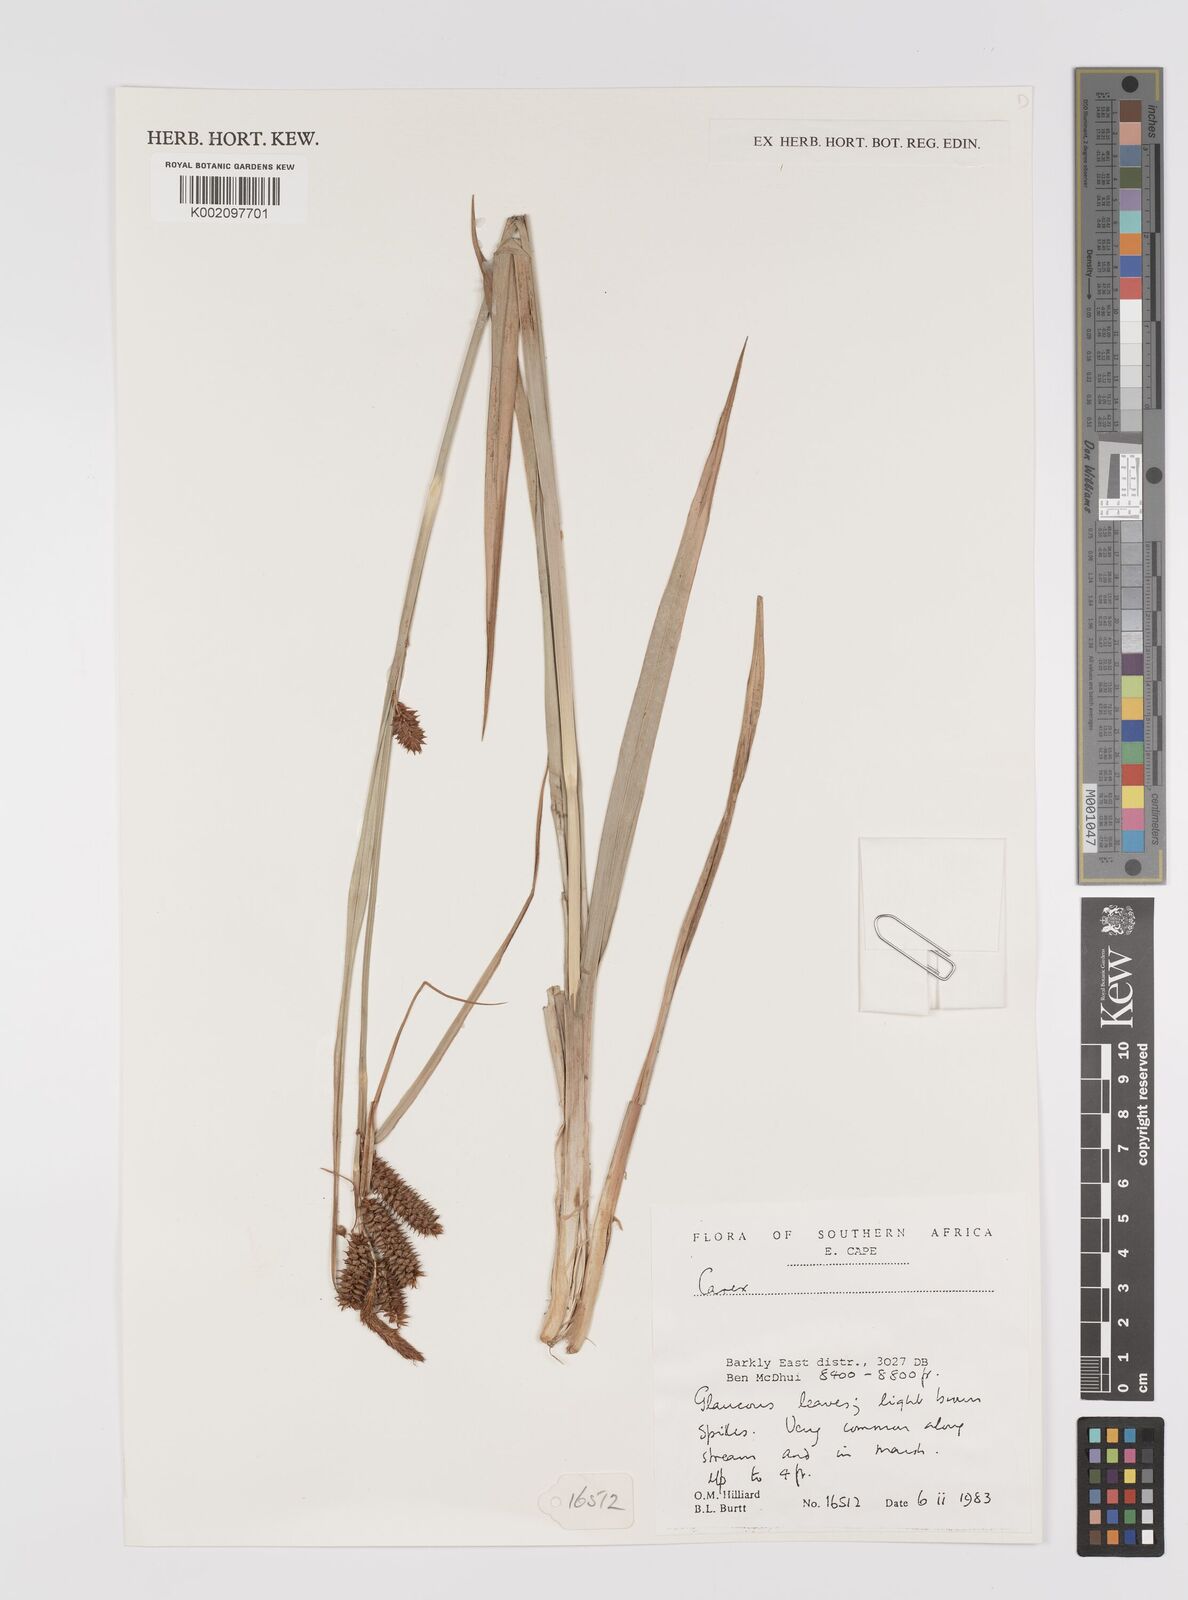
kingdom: Plantae
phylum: Tracheophyta
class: Liliopsida
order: Poales
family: Cyperaceae
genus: Carex
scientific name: Carex
